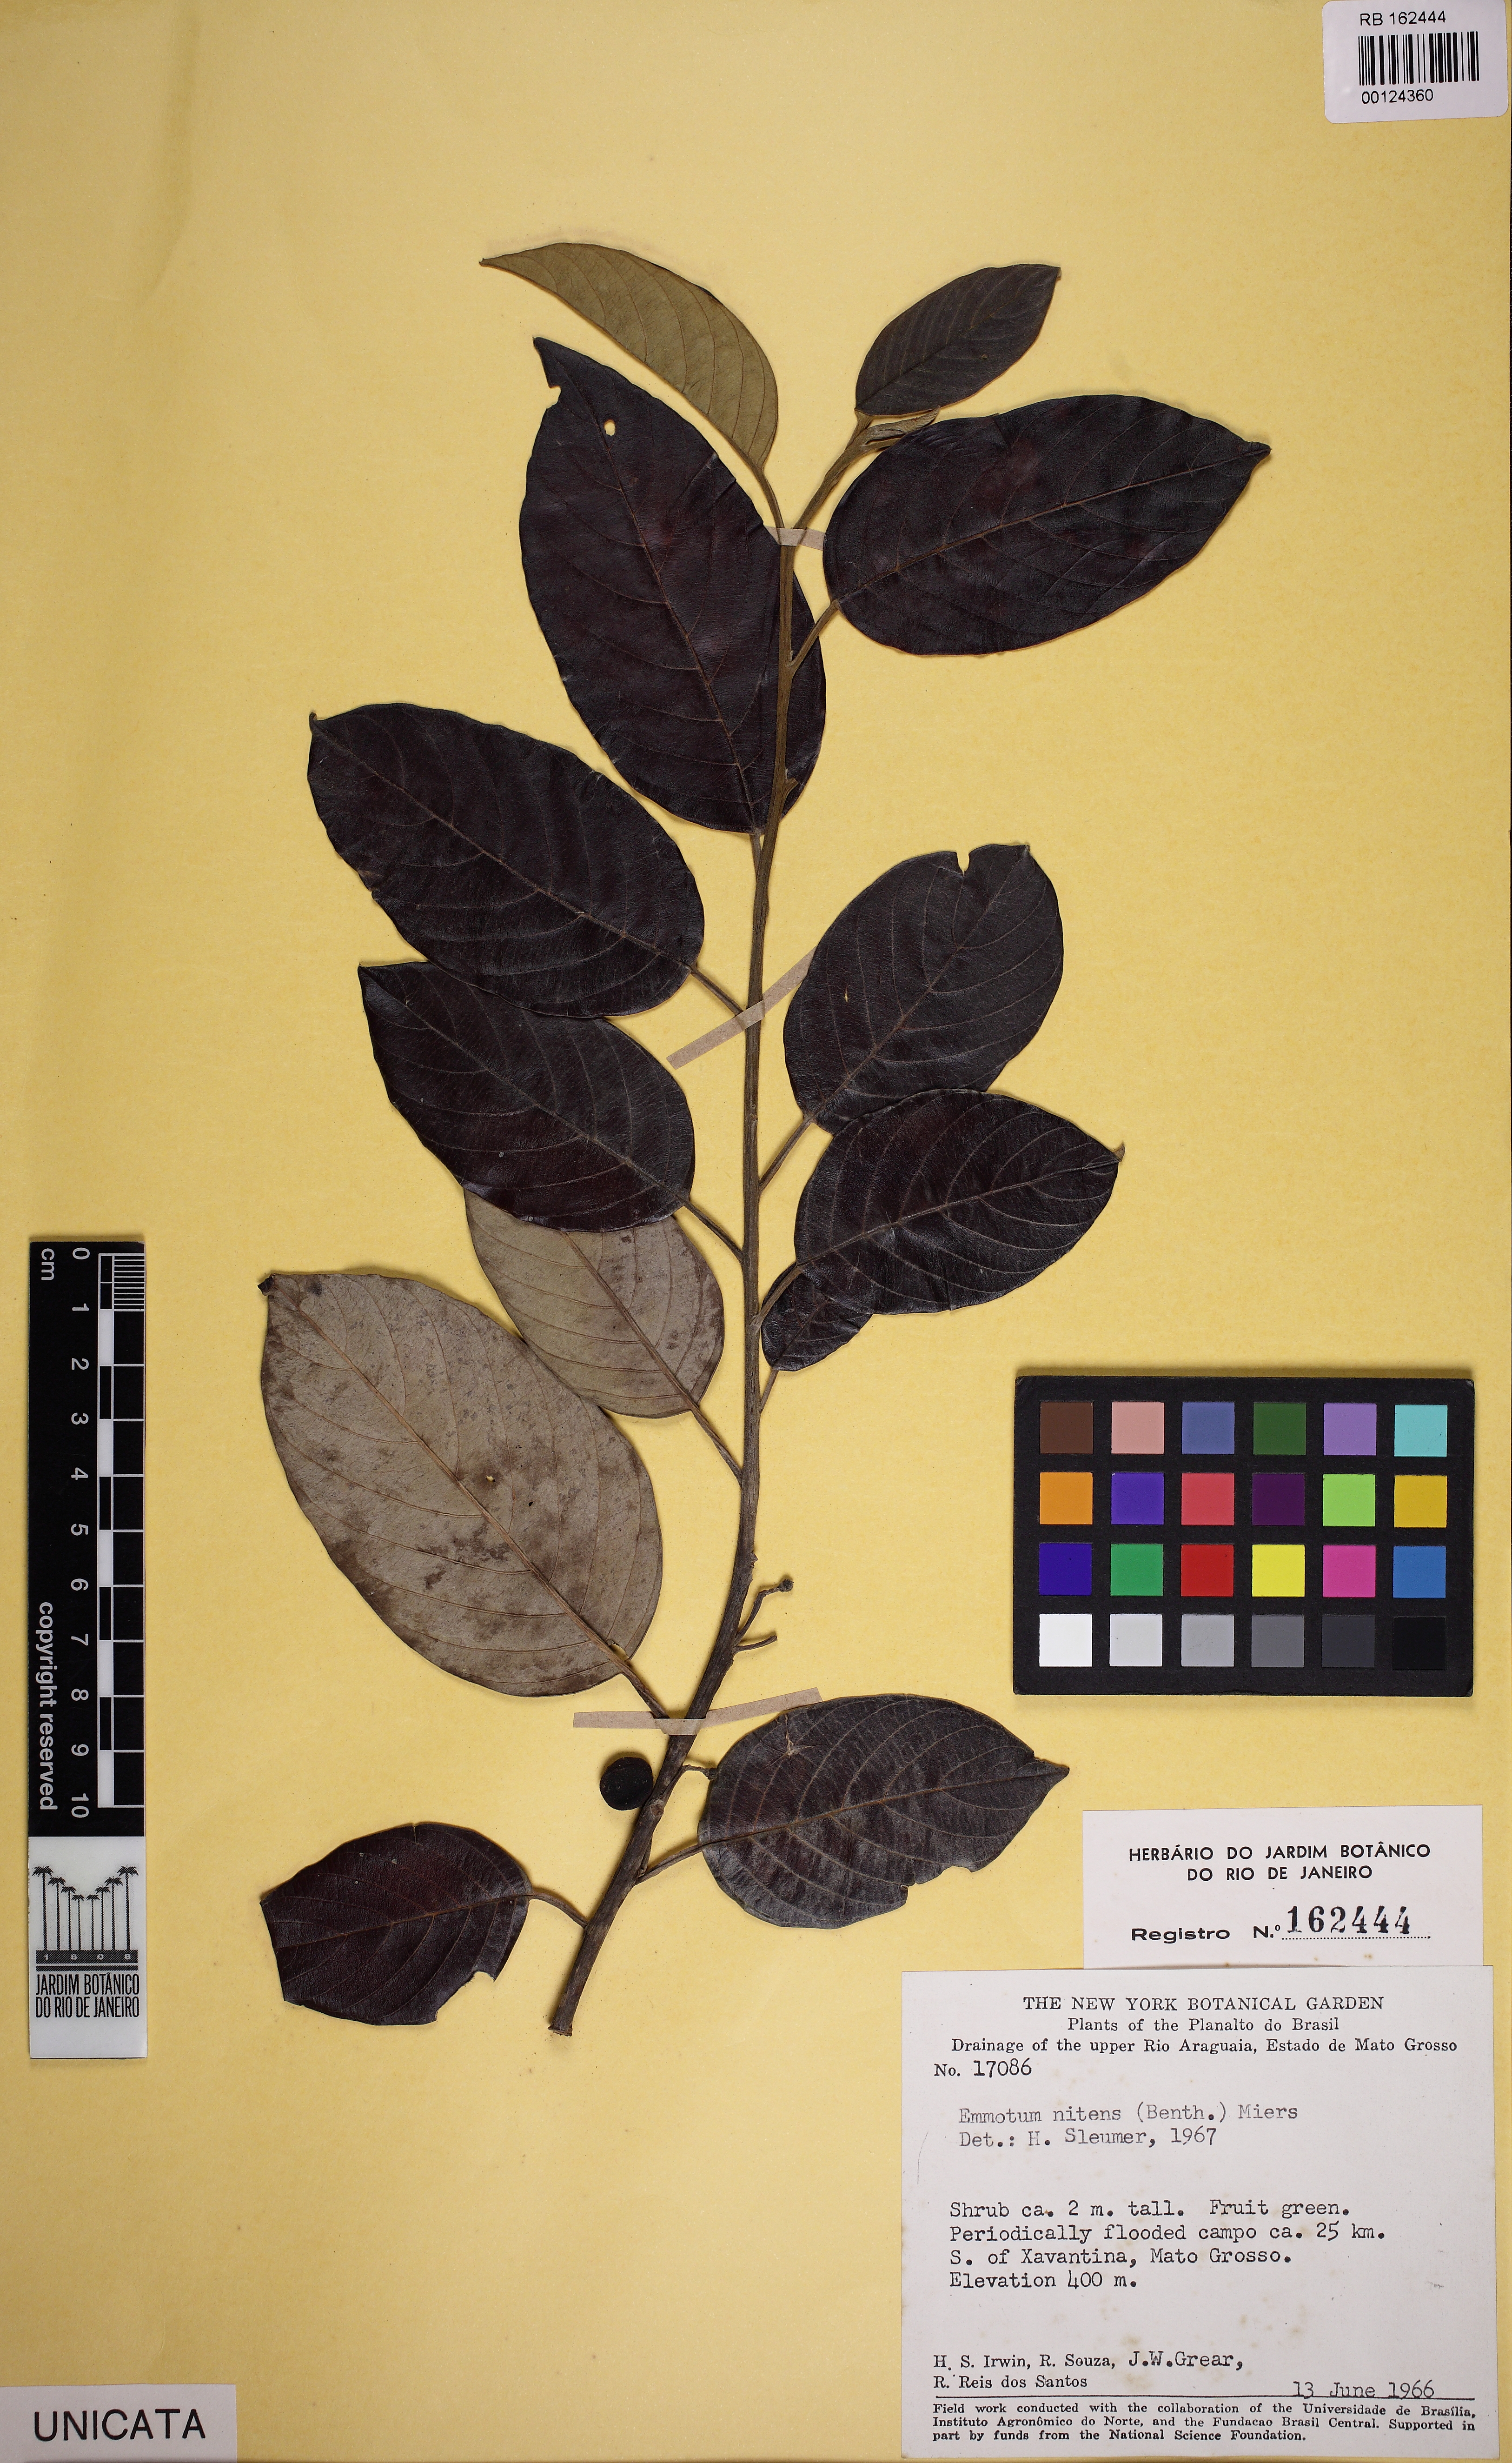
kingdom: Plantae
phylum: Tracheophyta
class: Magnoliopsida
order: Metteniusales
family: Metteniusaceae
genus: Emmotum
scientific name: Emmotum nitens
